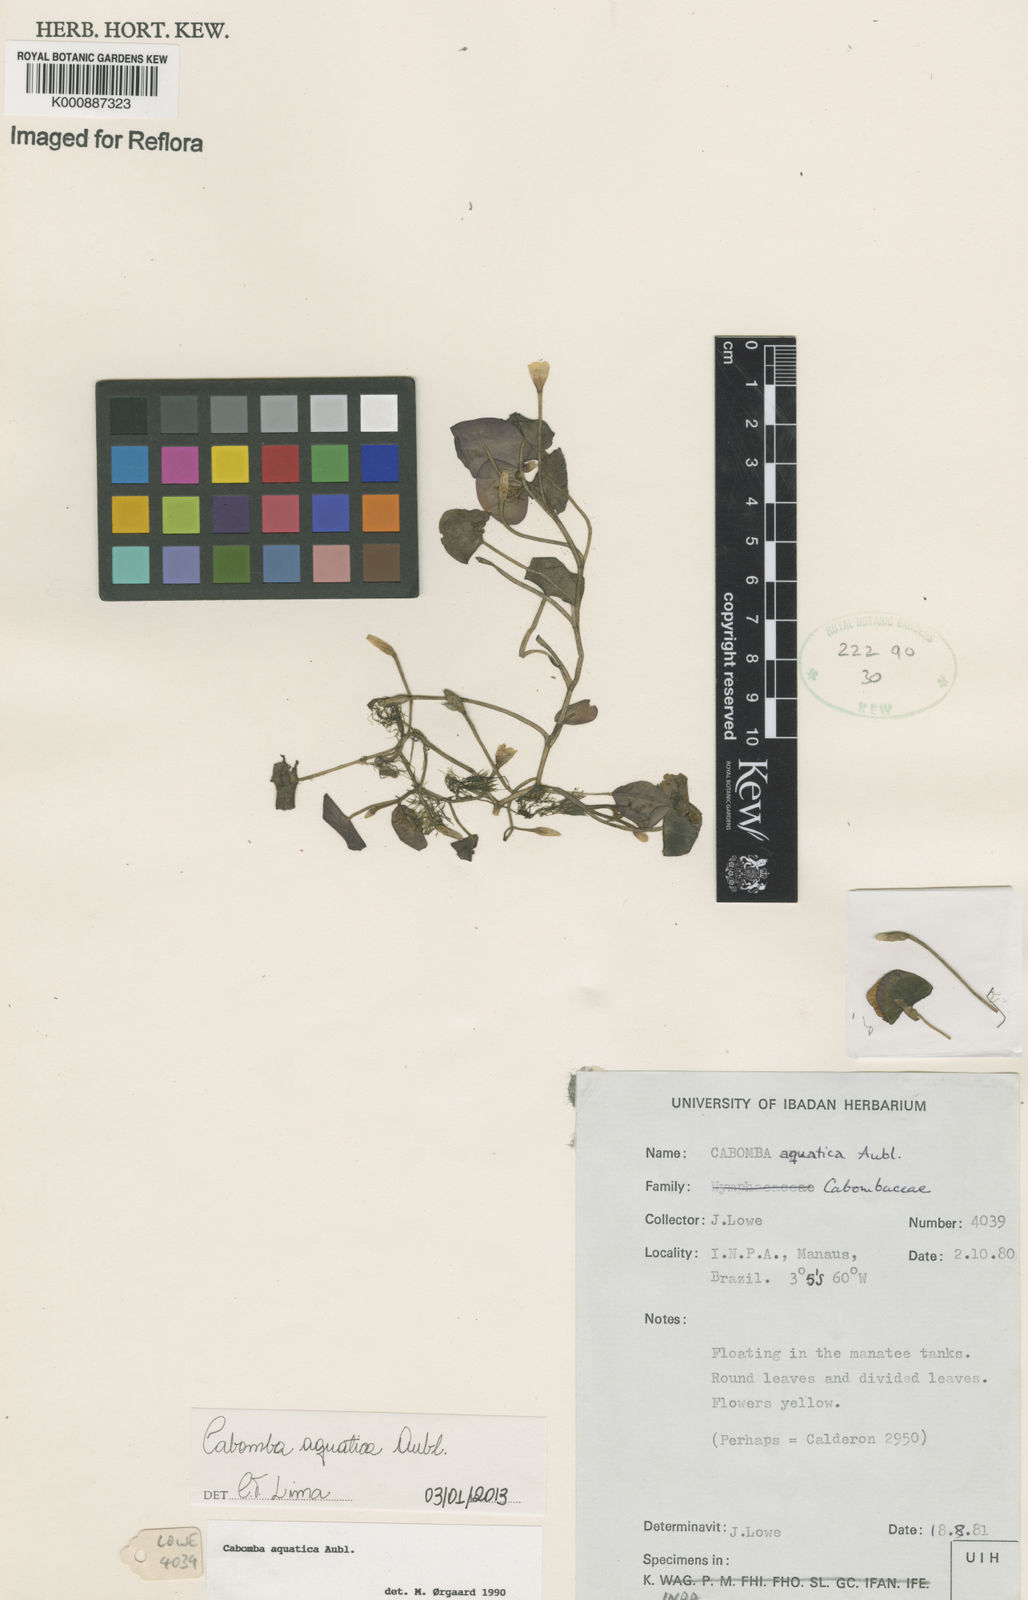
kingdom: Plantae
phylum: Tracheophyta
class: Magnoliopsida
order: Nymphaeales
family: Cabombaceae
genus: Cabomba
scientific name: Cabomba aquatica
